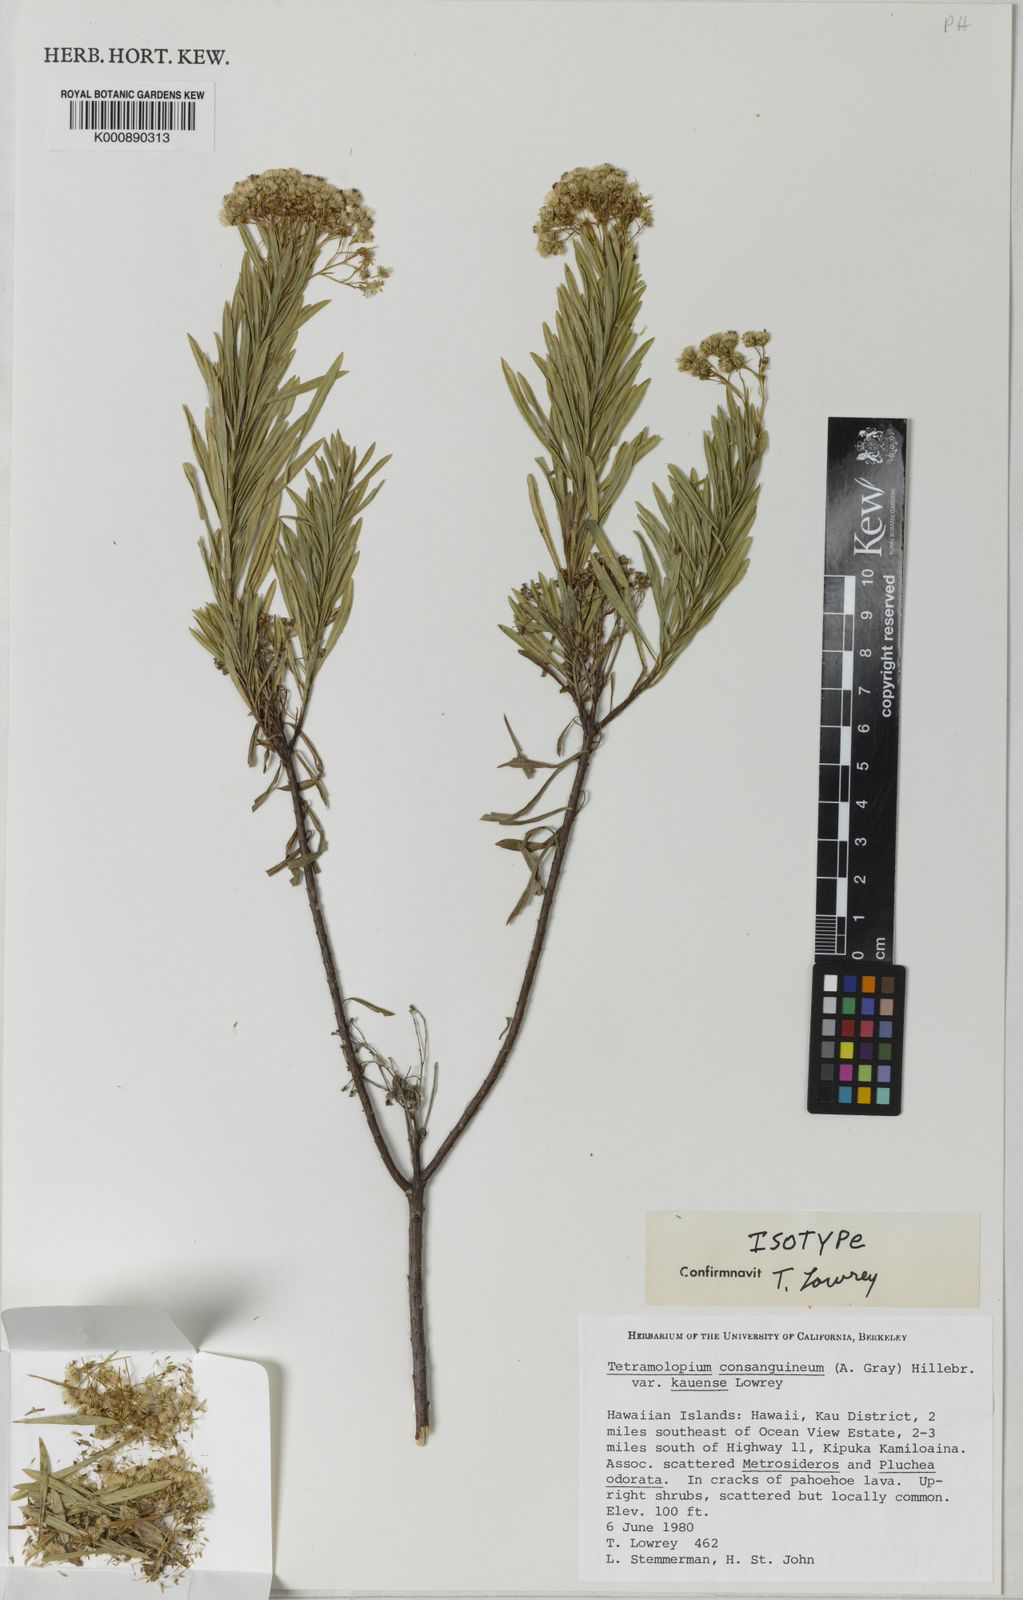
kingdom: Plantae
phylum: Tracheophyta
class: Magnoliopsida
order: Asterales
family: Asteraceae
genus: Tetramolopium
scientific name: Tetramolopium consanguineum
